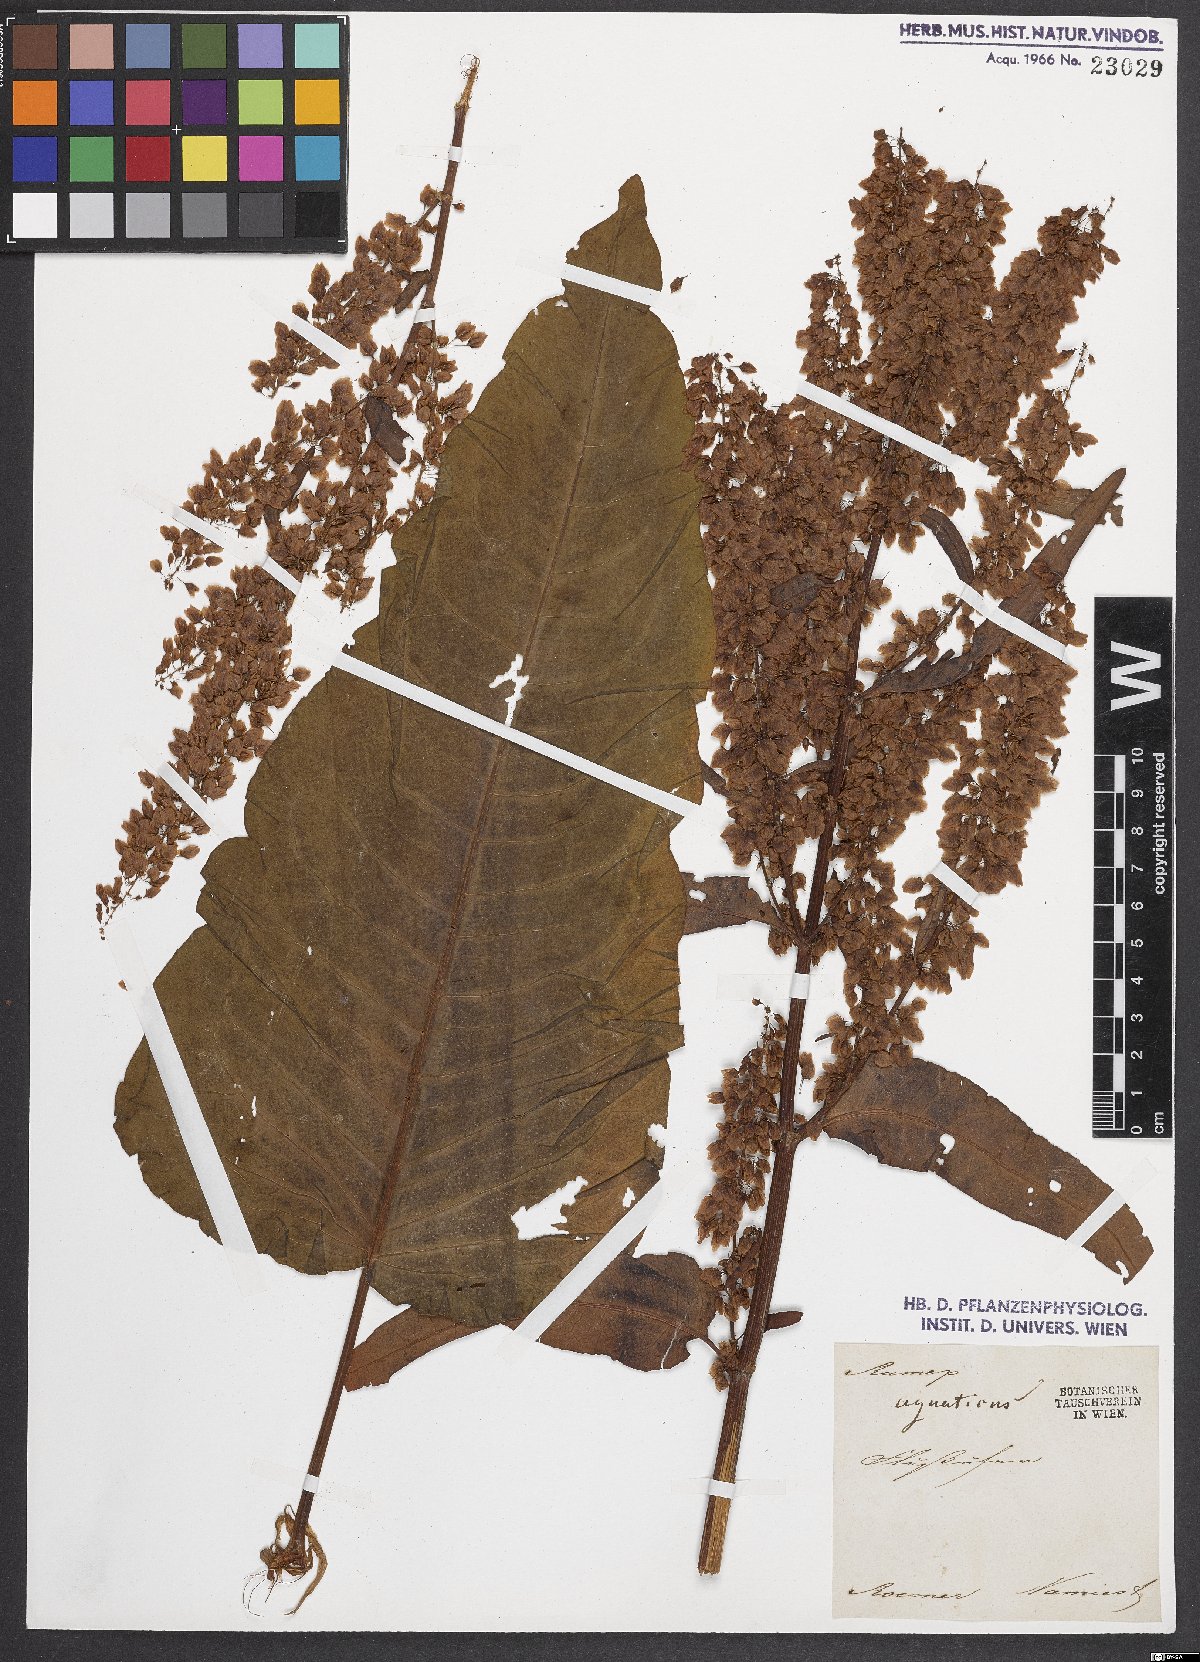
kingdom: Plantae
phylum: Tracheophyta
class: Magnoliopsida
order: Caryophyllales
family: Polygonaceae
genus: Rumex
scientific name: Rumex aquaticus
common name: Scottish dock
